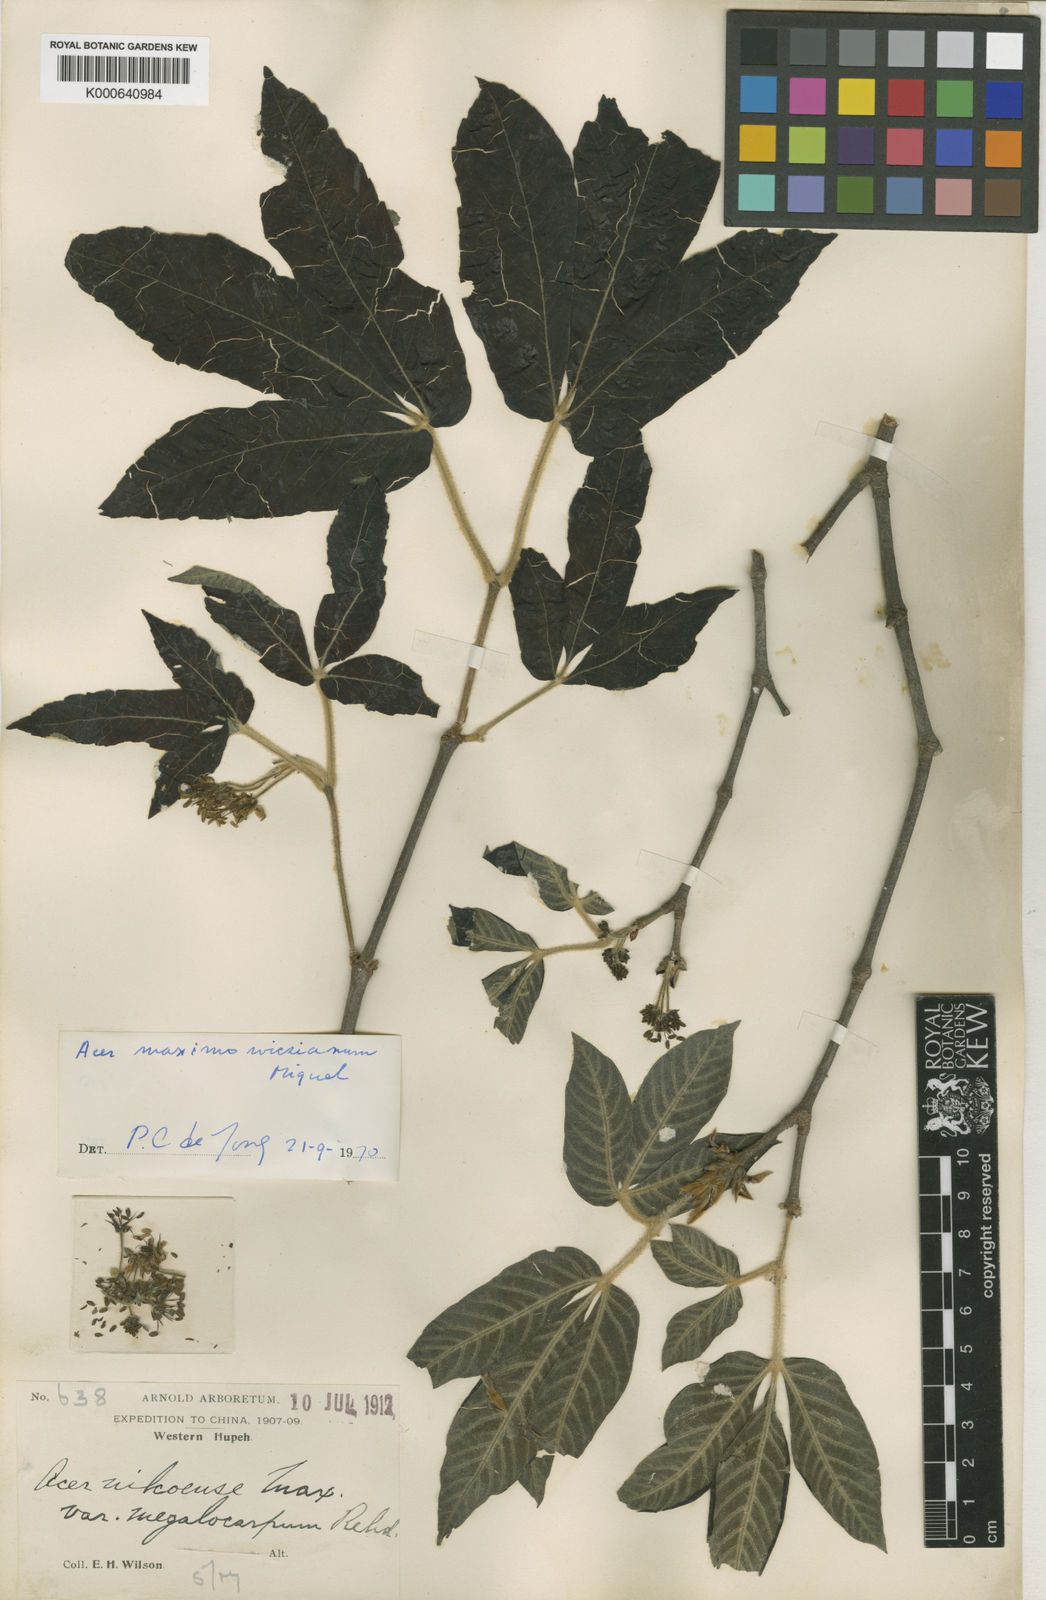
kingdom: Plantae
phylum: Tracheophyta
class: Magnoliopsida
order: Sapindales
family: Sapindaceae
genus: Acer
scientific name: Acer maximowiczianum
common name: Nikko maple
